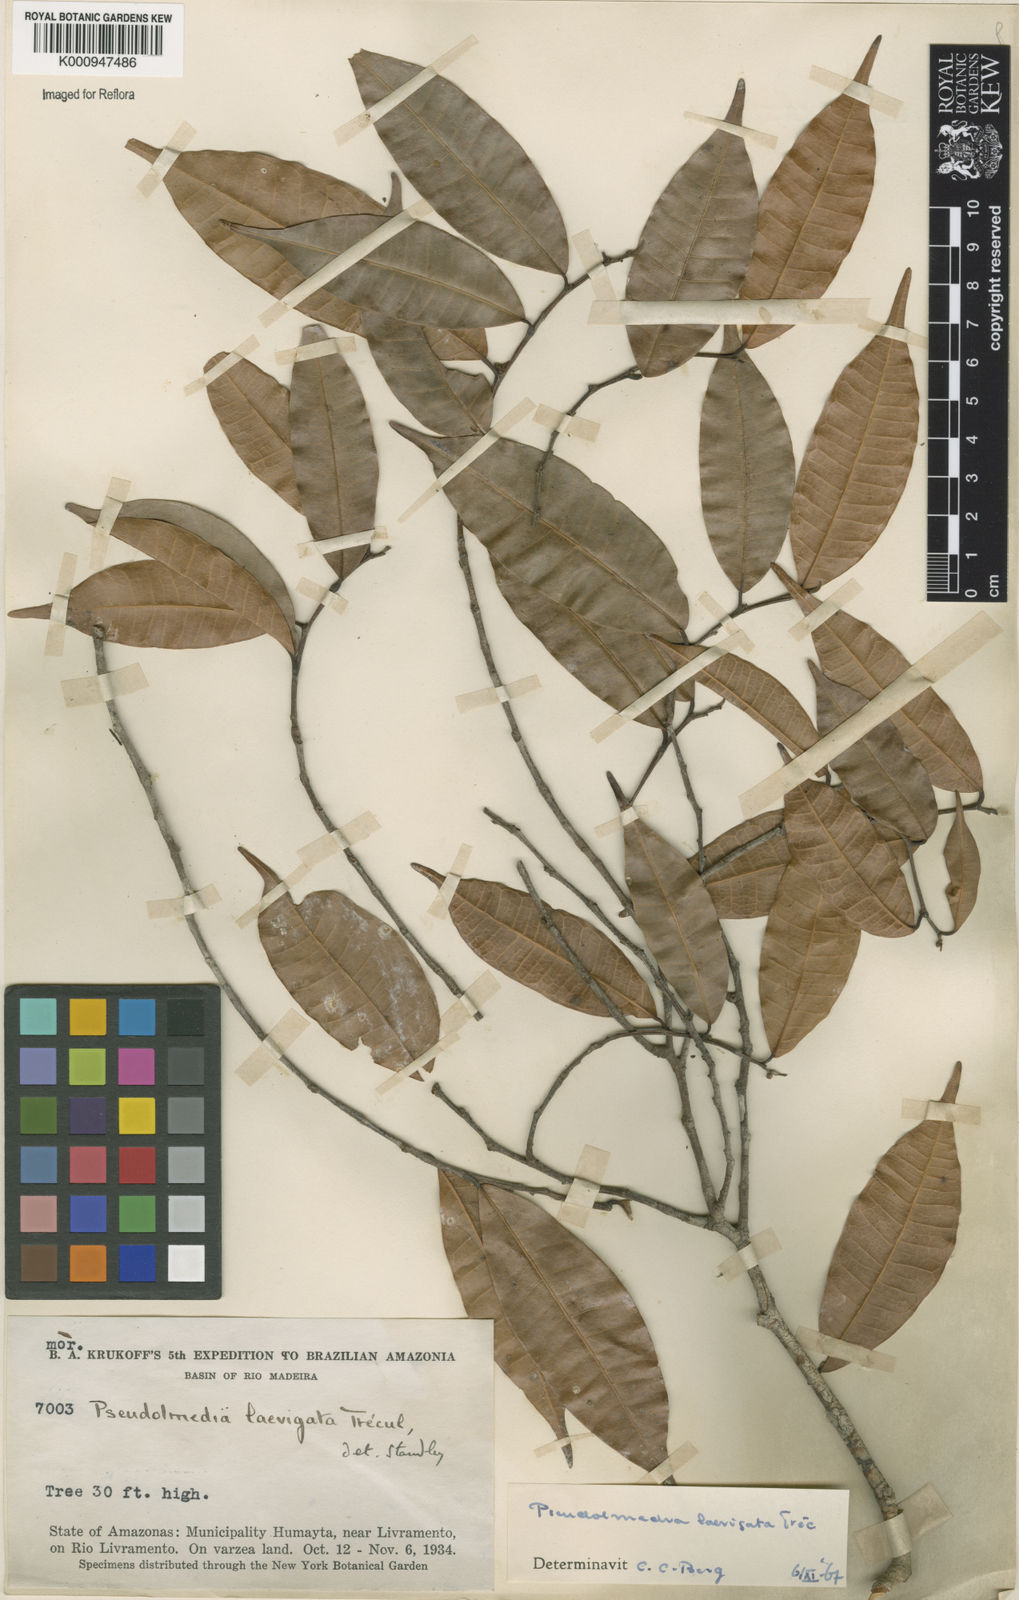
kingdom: Plantae
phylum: Tracheophyta
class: Magnoliopsida
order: Rosales
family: Moraceae
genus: Pseudolmedia
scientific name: Pseudolmedia
